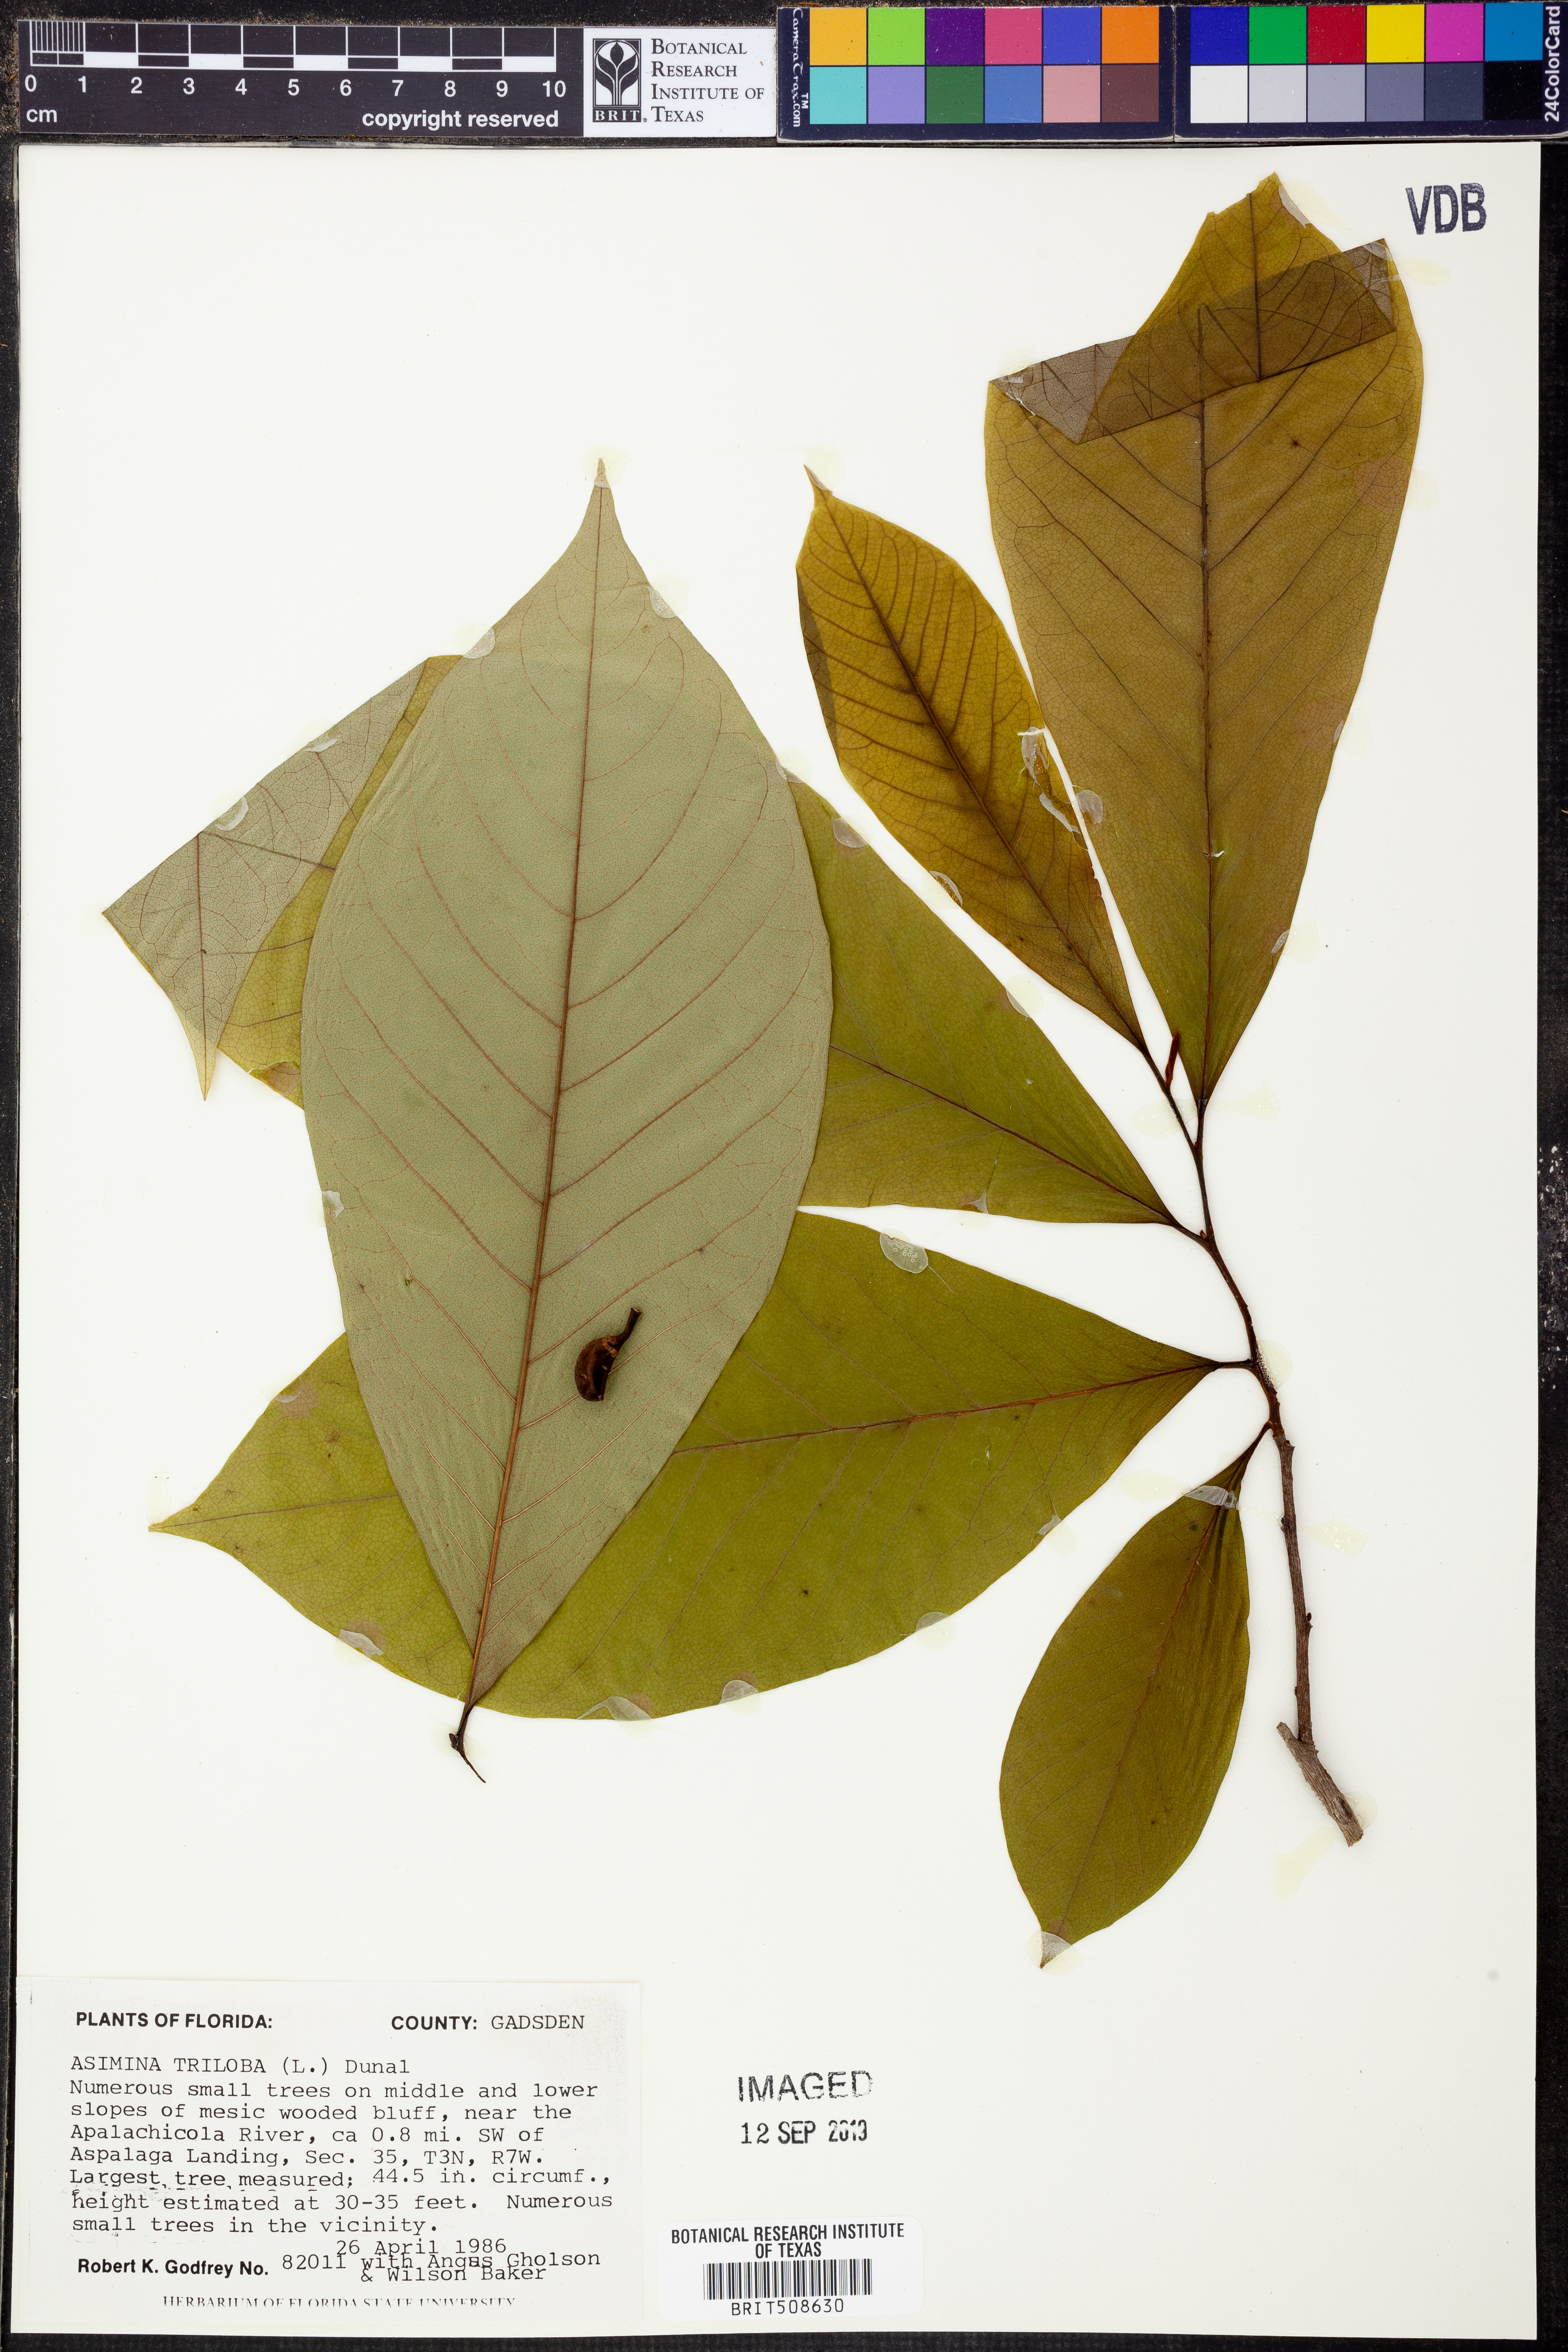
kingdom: Plantae
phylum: Tracheophyta
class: Magnoliopsida
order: Magnoliales
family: Annonaceae
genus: Asimina
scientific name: Asimina triloba
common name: Dog-banana
